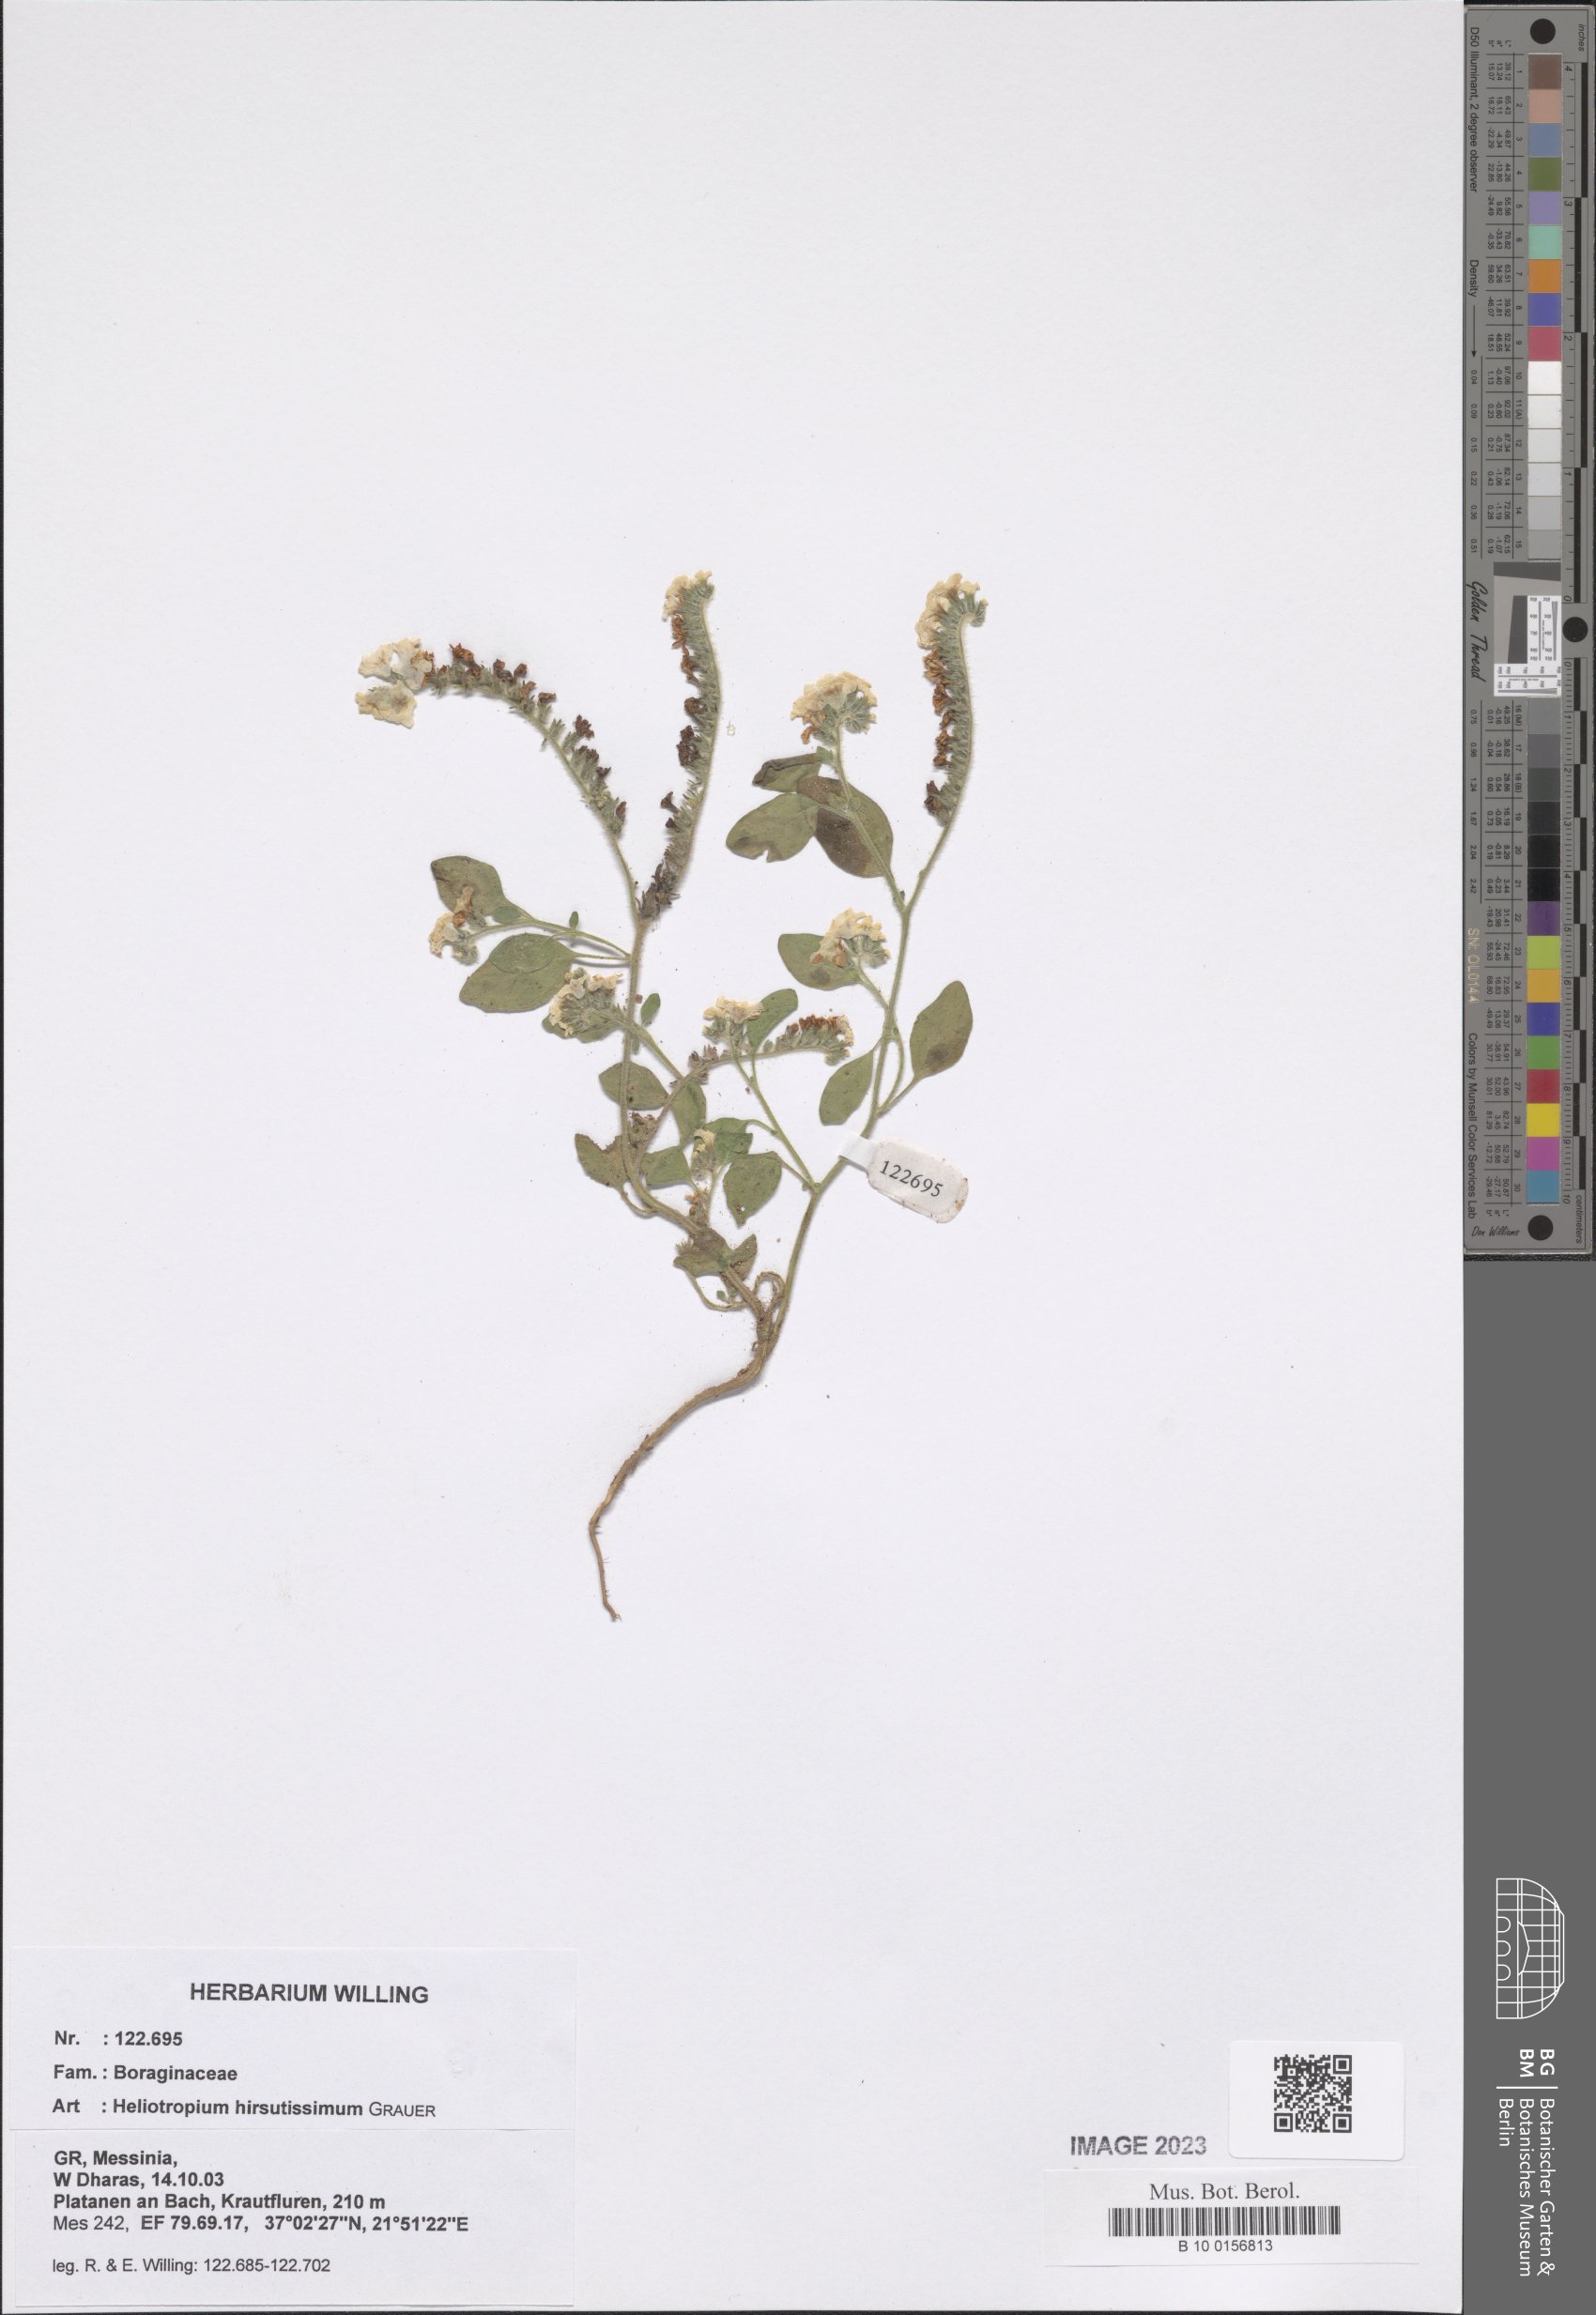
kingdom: Plantae
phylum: Tracheophyta
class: Magnoliopsida
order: Boraginales
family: Heliotropiaceae
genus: Heliotropium
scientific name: Heliotropium hirsutissimum
